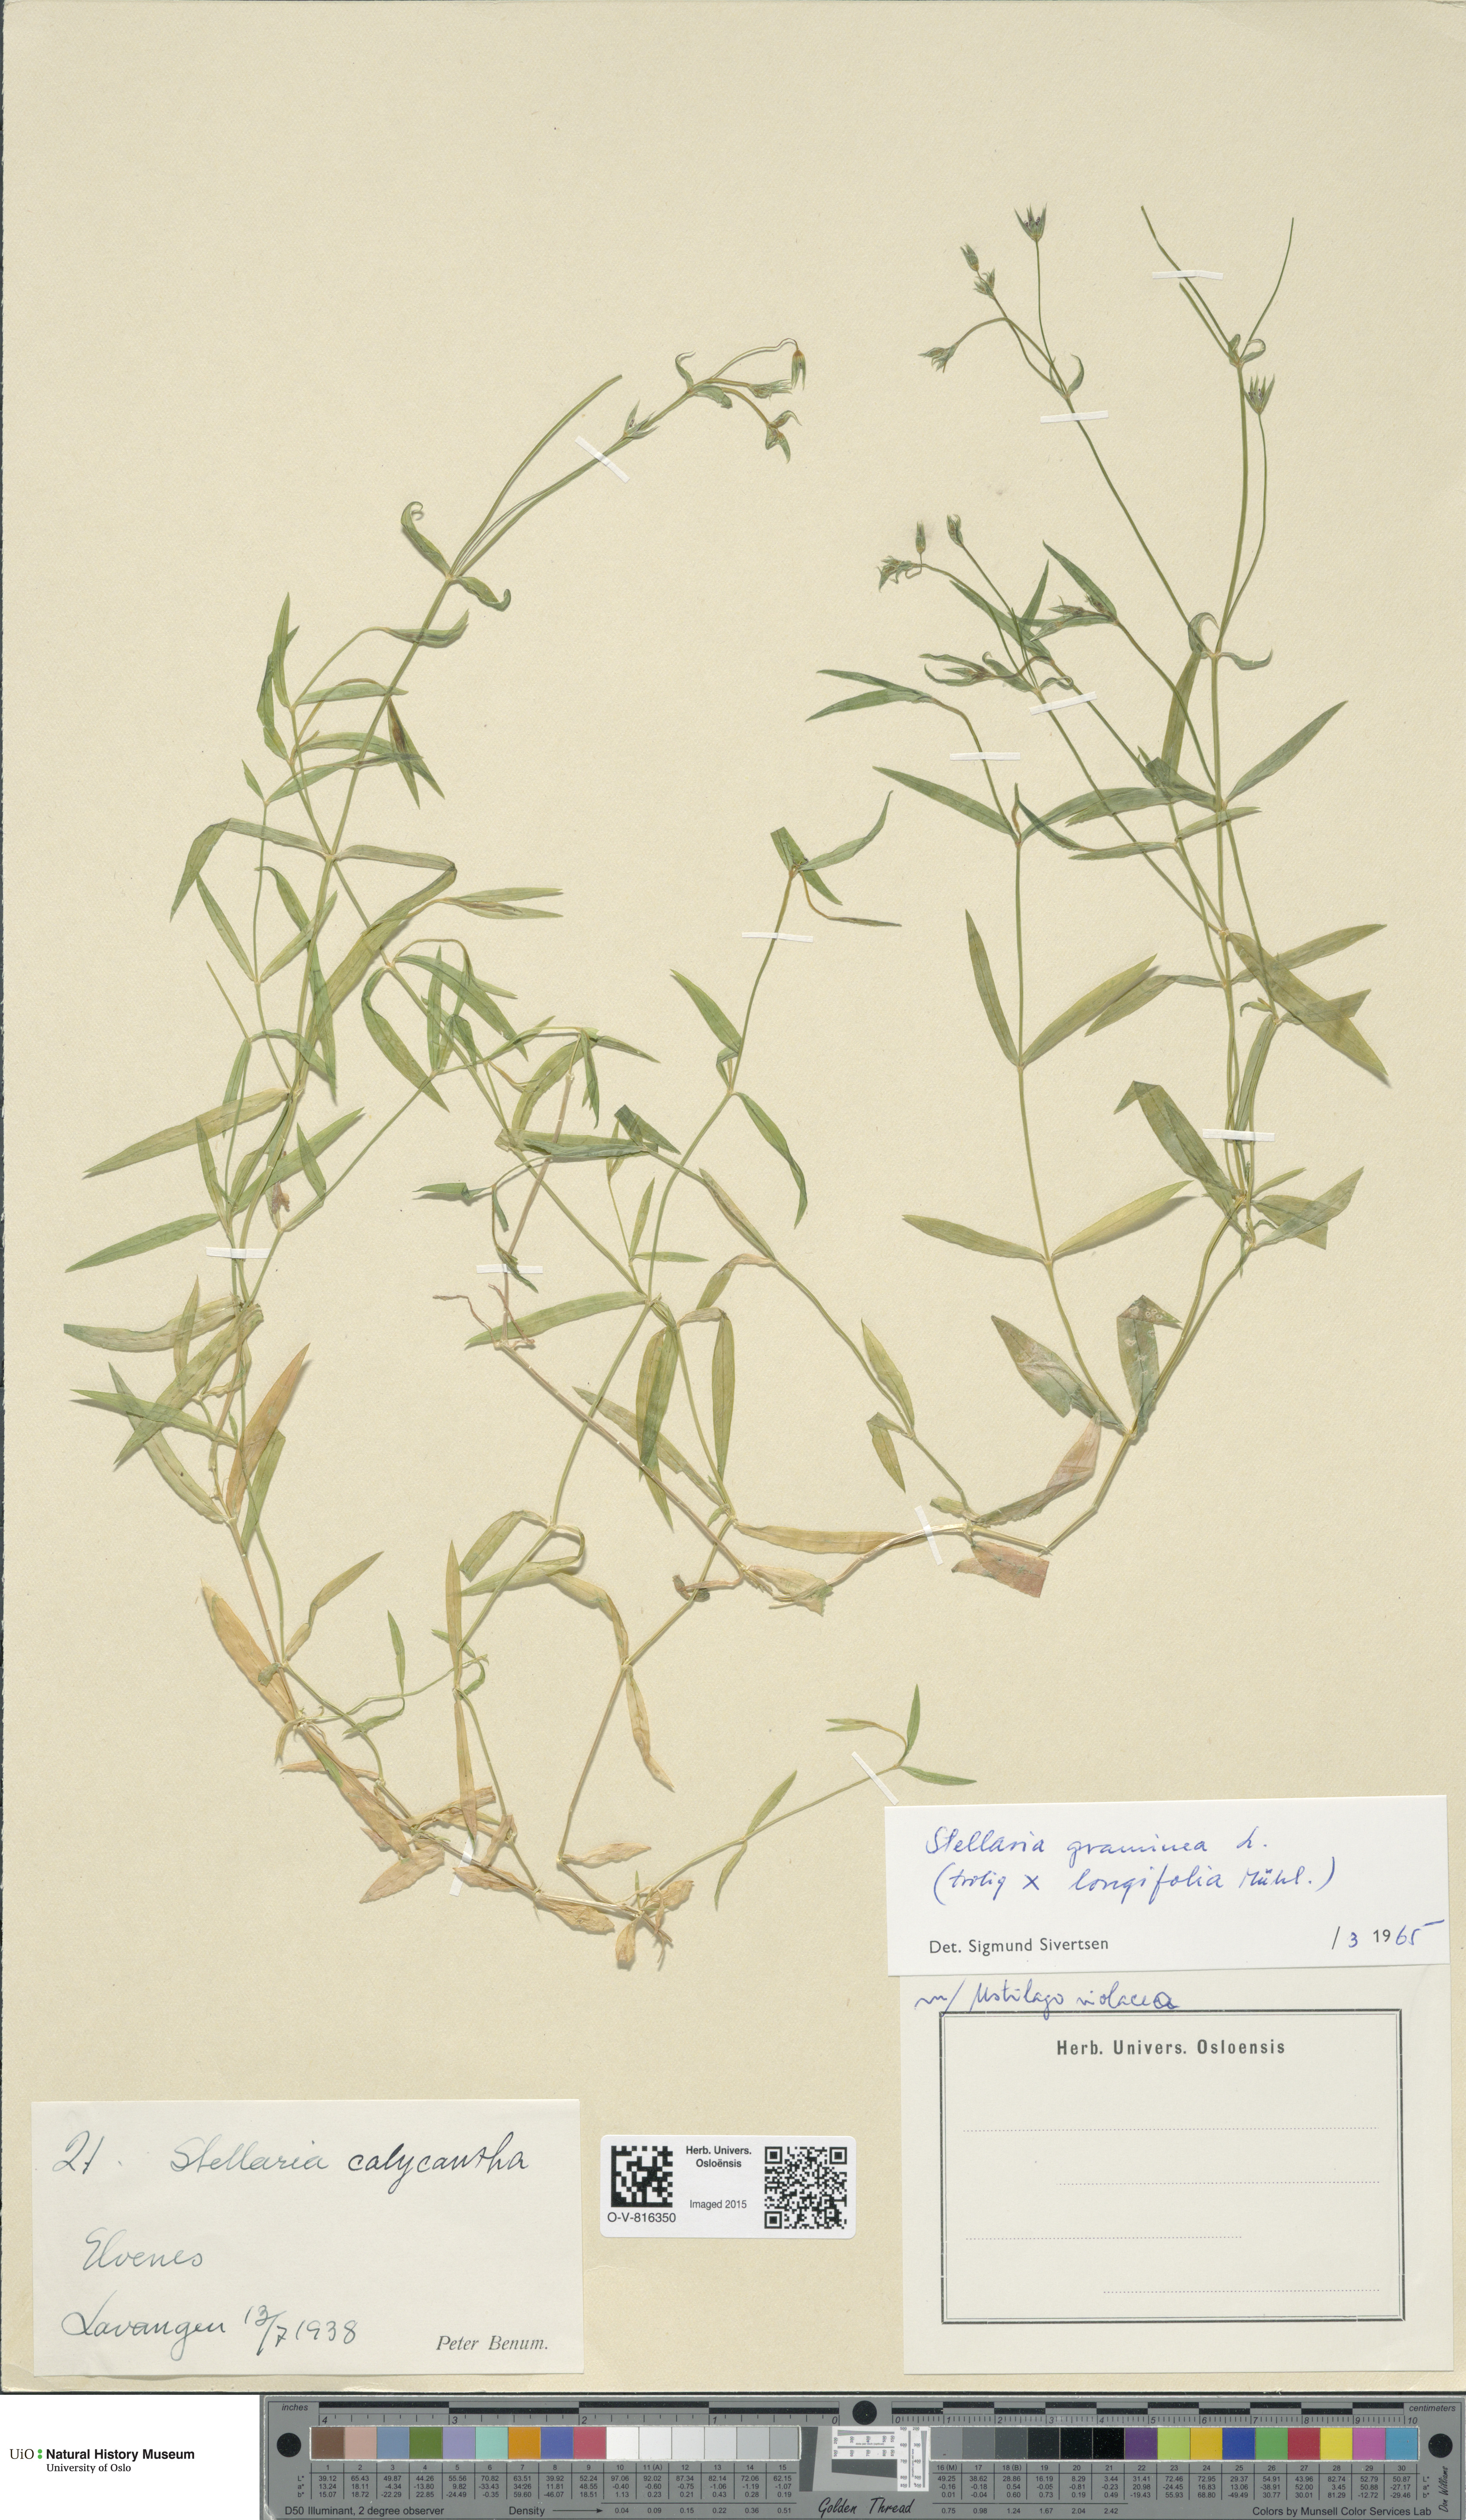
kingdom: Plantae
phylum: Tracheophyta
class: Magnoliopsida
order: Caryophyllales
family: Caryophyllaceae
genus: Stellaria
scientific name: Stellaria graminea
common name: Grass-like starwort
